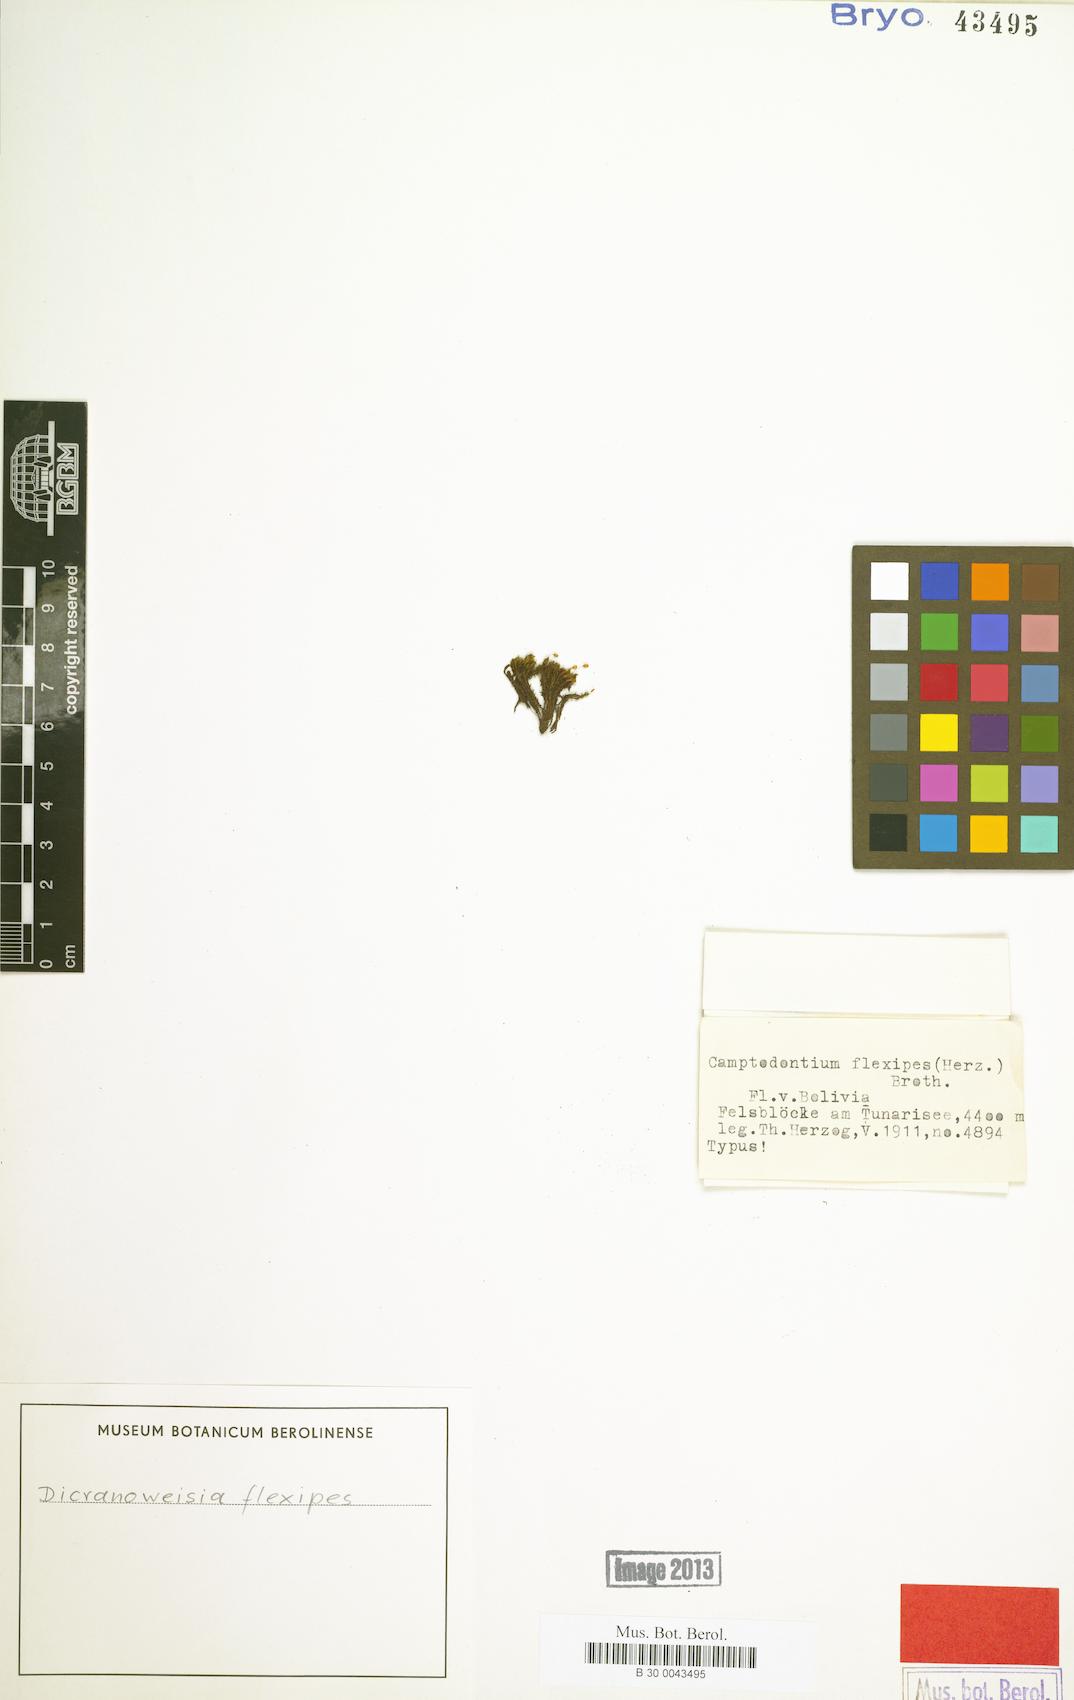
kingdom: Plantae
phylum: Bryophyta
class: Bryopsida
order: Dicranales
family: Rhabdoweisiaceae
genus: Cynodontium
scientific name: Cynodontium peruvianum
